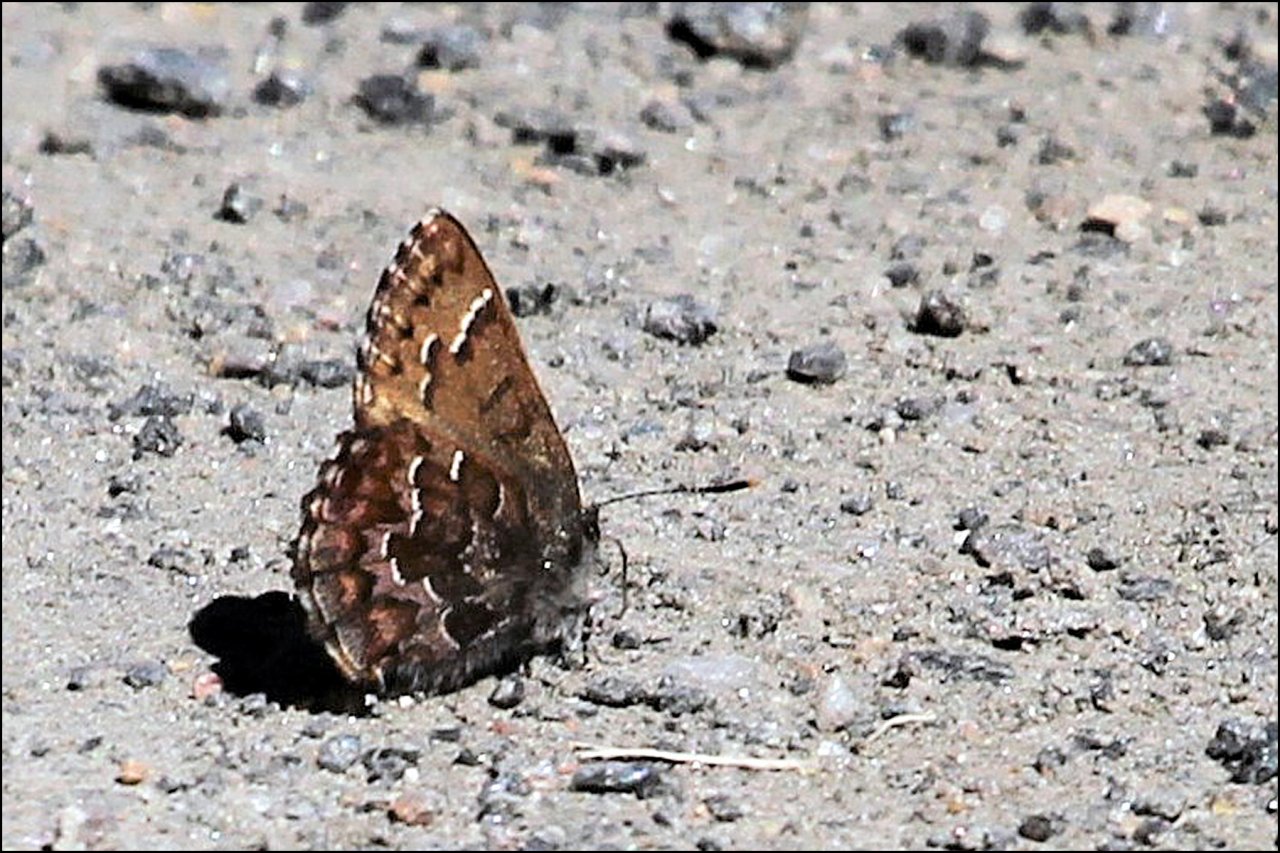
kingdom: Animalia
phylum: Arthropoda
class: Insecta
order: Lepidoptera
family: Lycaenidae
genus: Incisalia
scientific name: Incisalia niphon
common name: Eastern Pine Elfin
